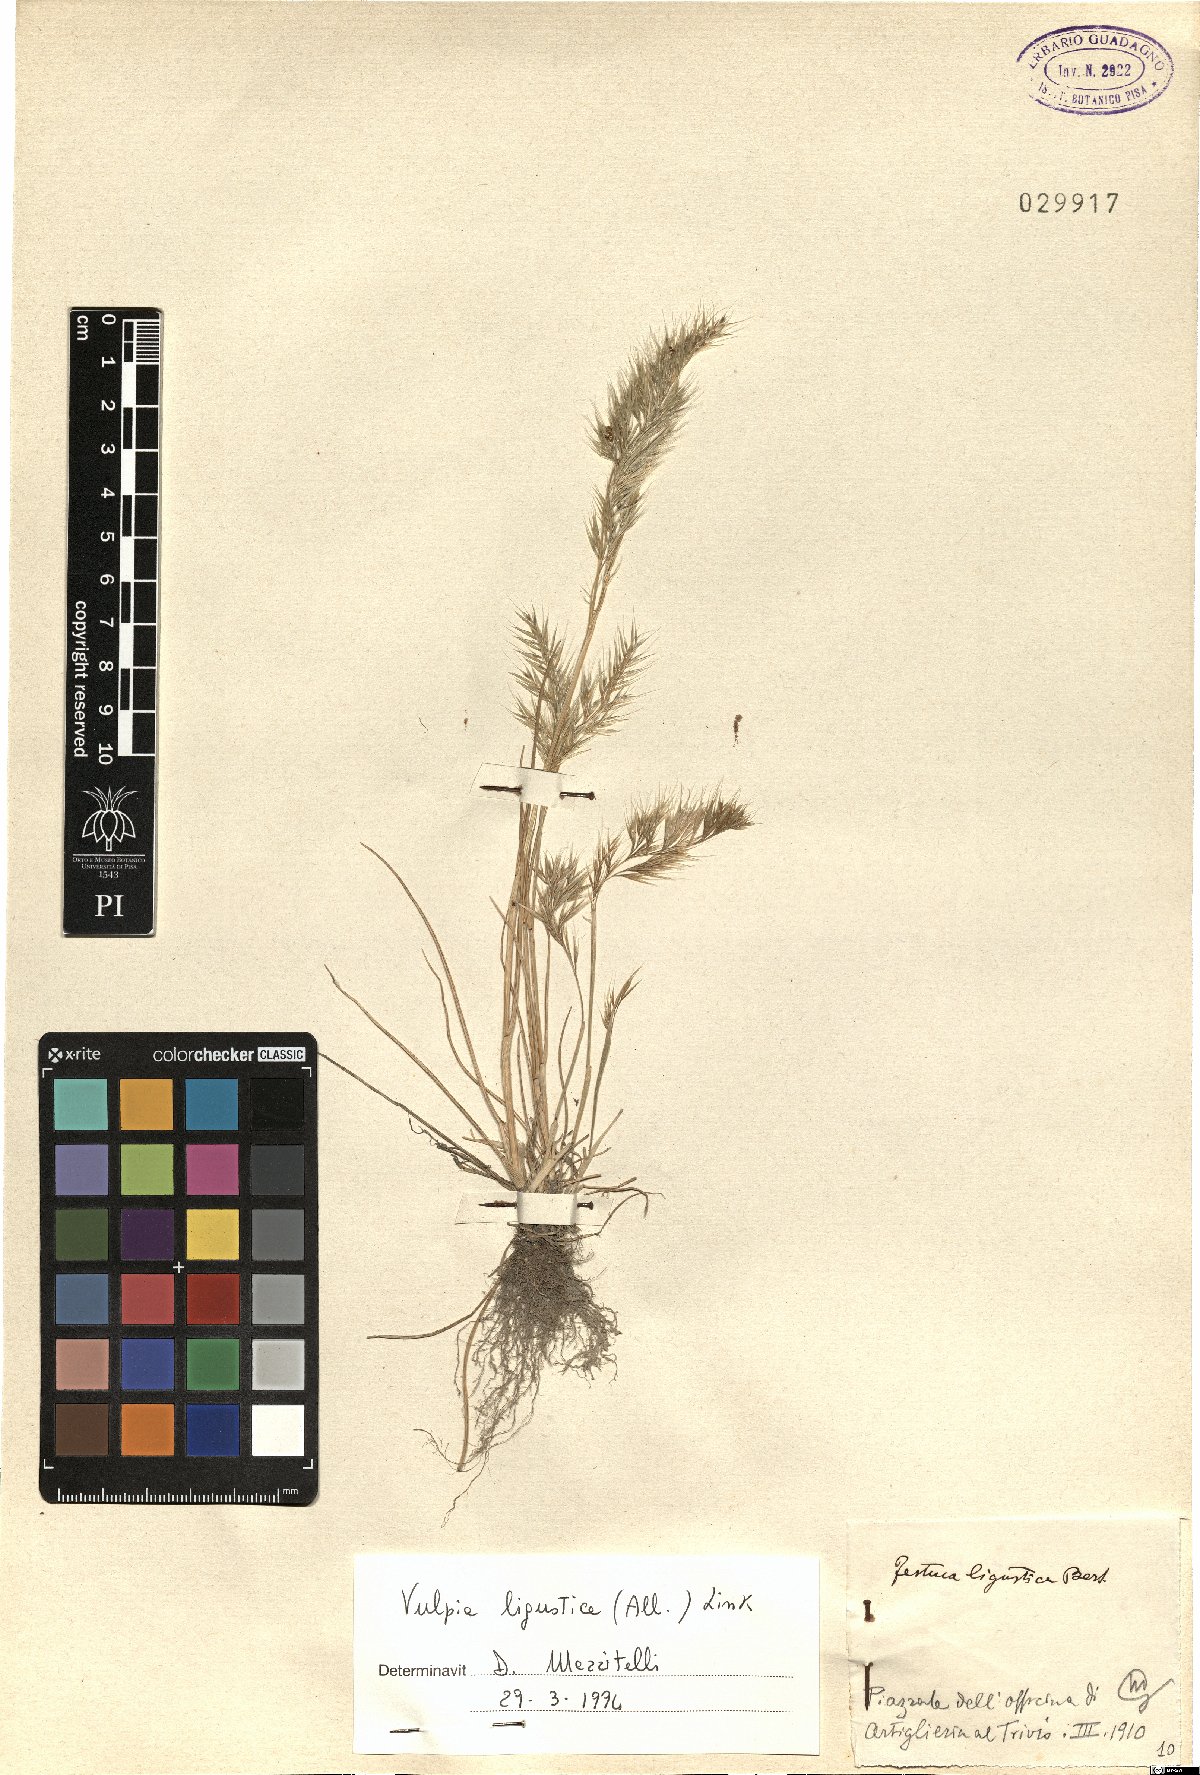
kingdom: Plantae
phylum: Tracheophyta
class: Liliopsida
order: Poales
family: Poaceae
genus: Festuca
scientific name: Festuca ligustica
